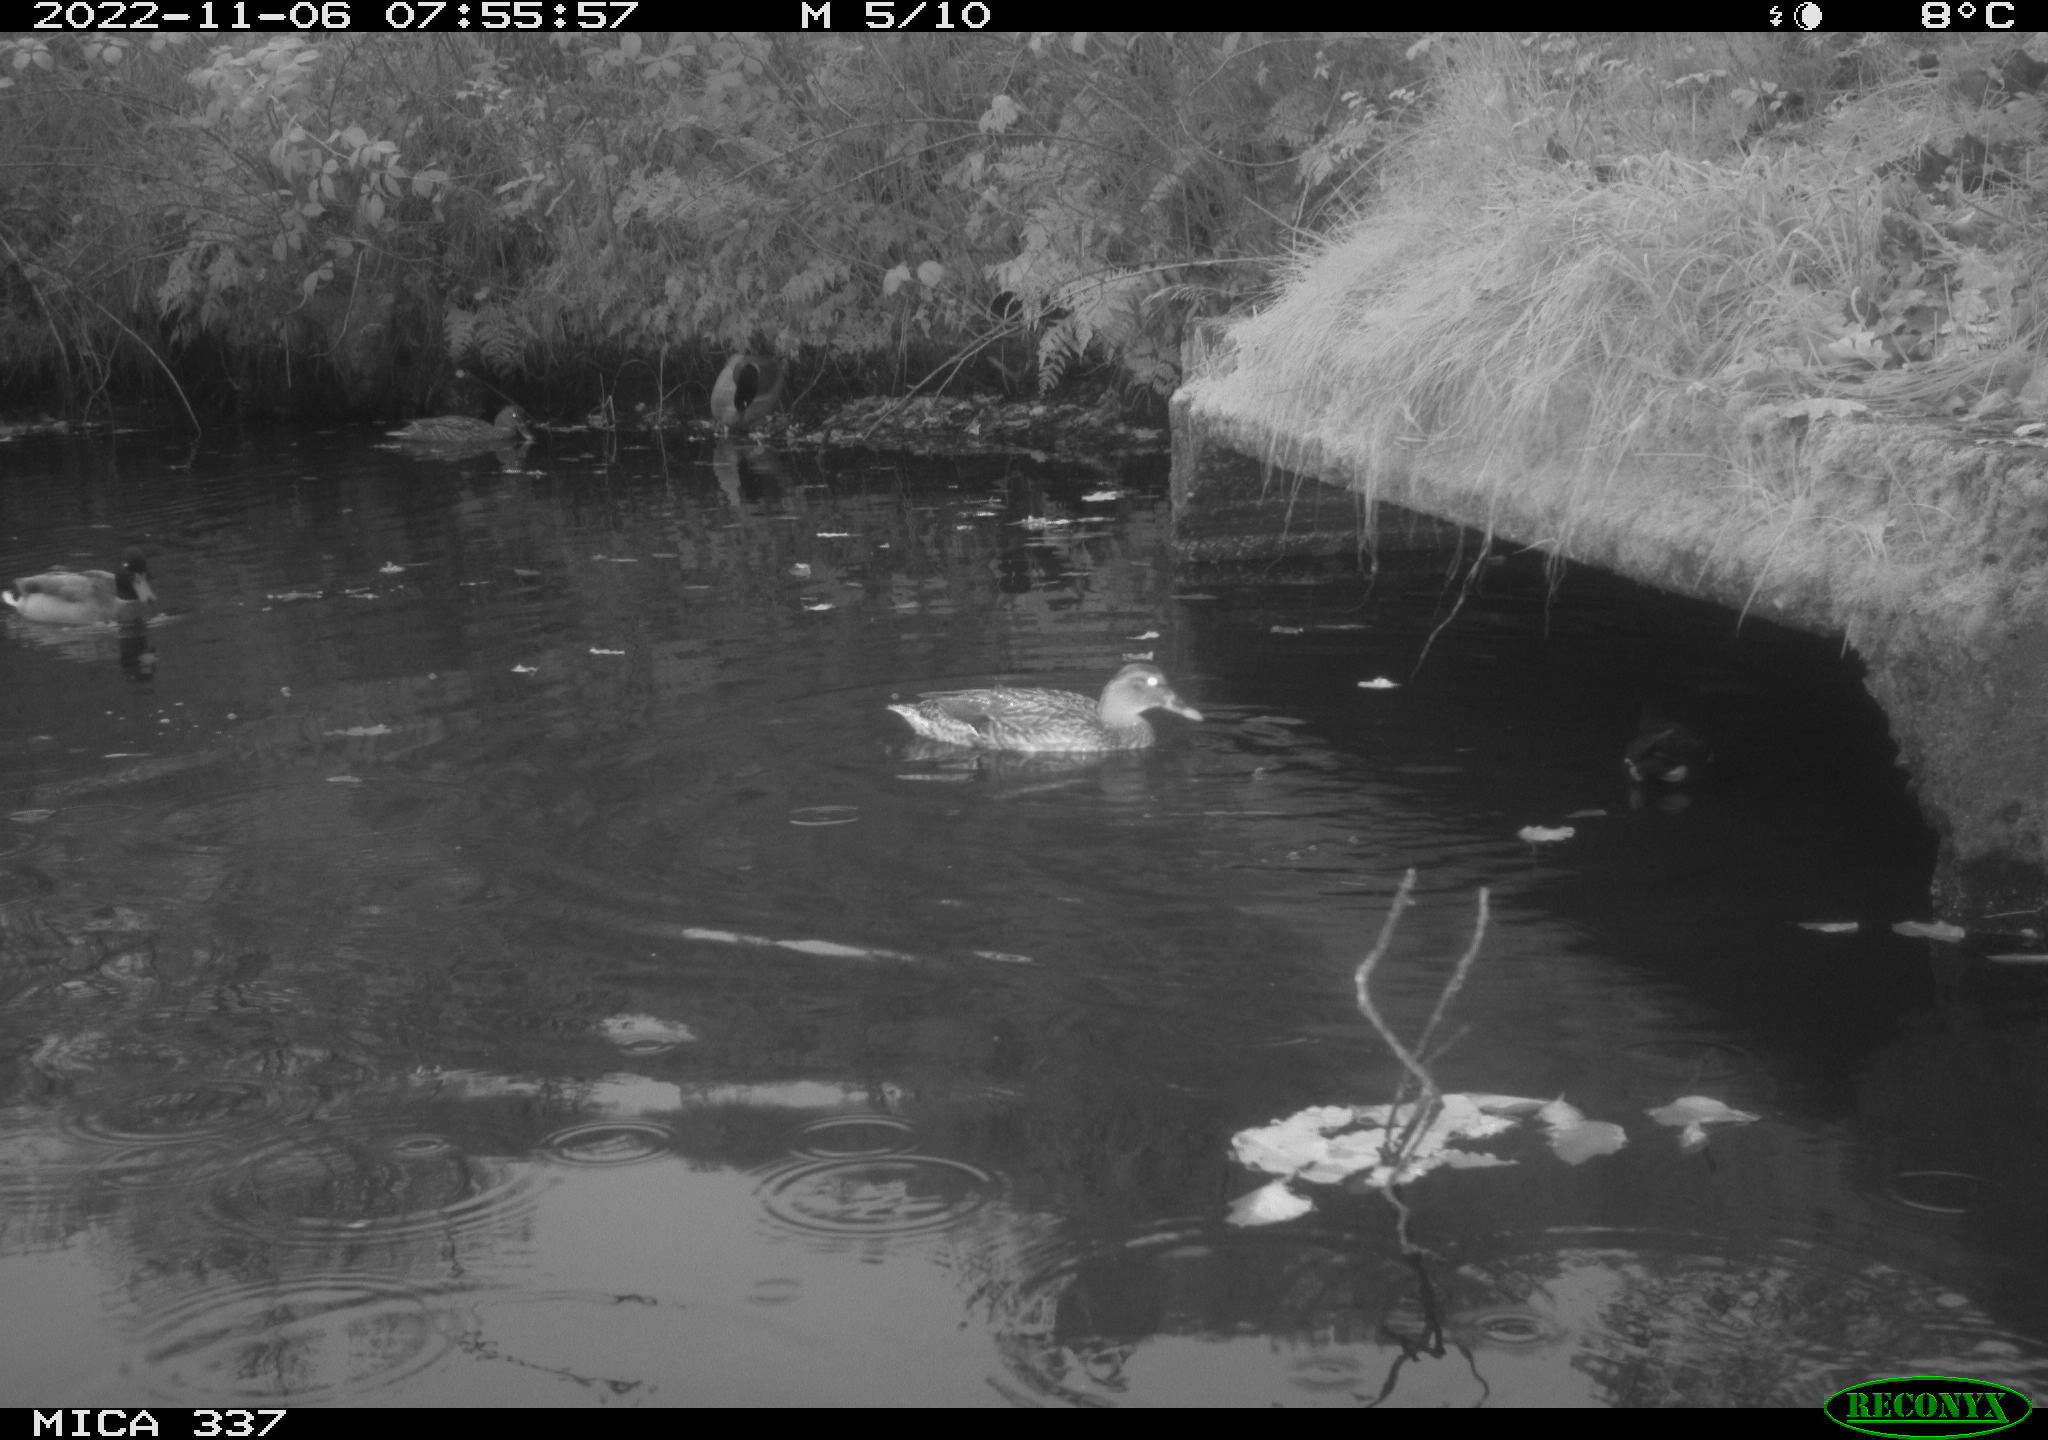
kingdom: Animalia
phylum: Chordata
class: Aves
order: Gruiformes
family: Rallidae
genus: Gallinula
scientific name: Gallinula chloropus
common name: Common moorhen
